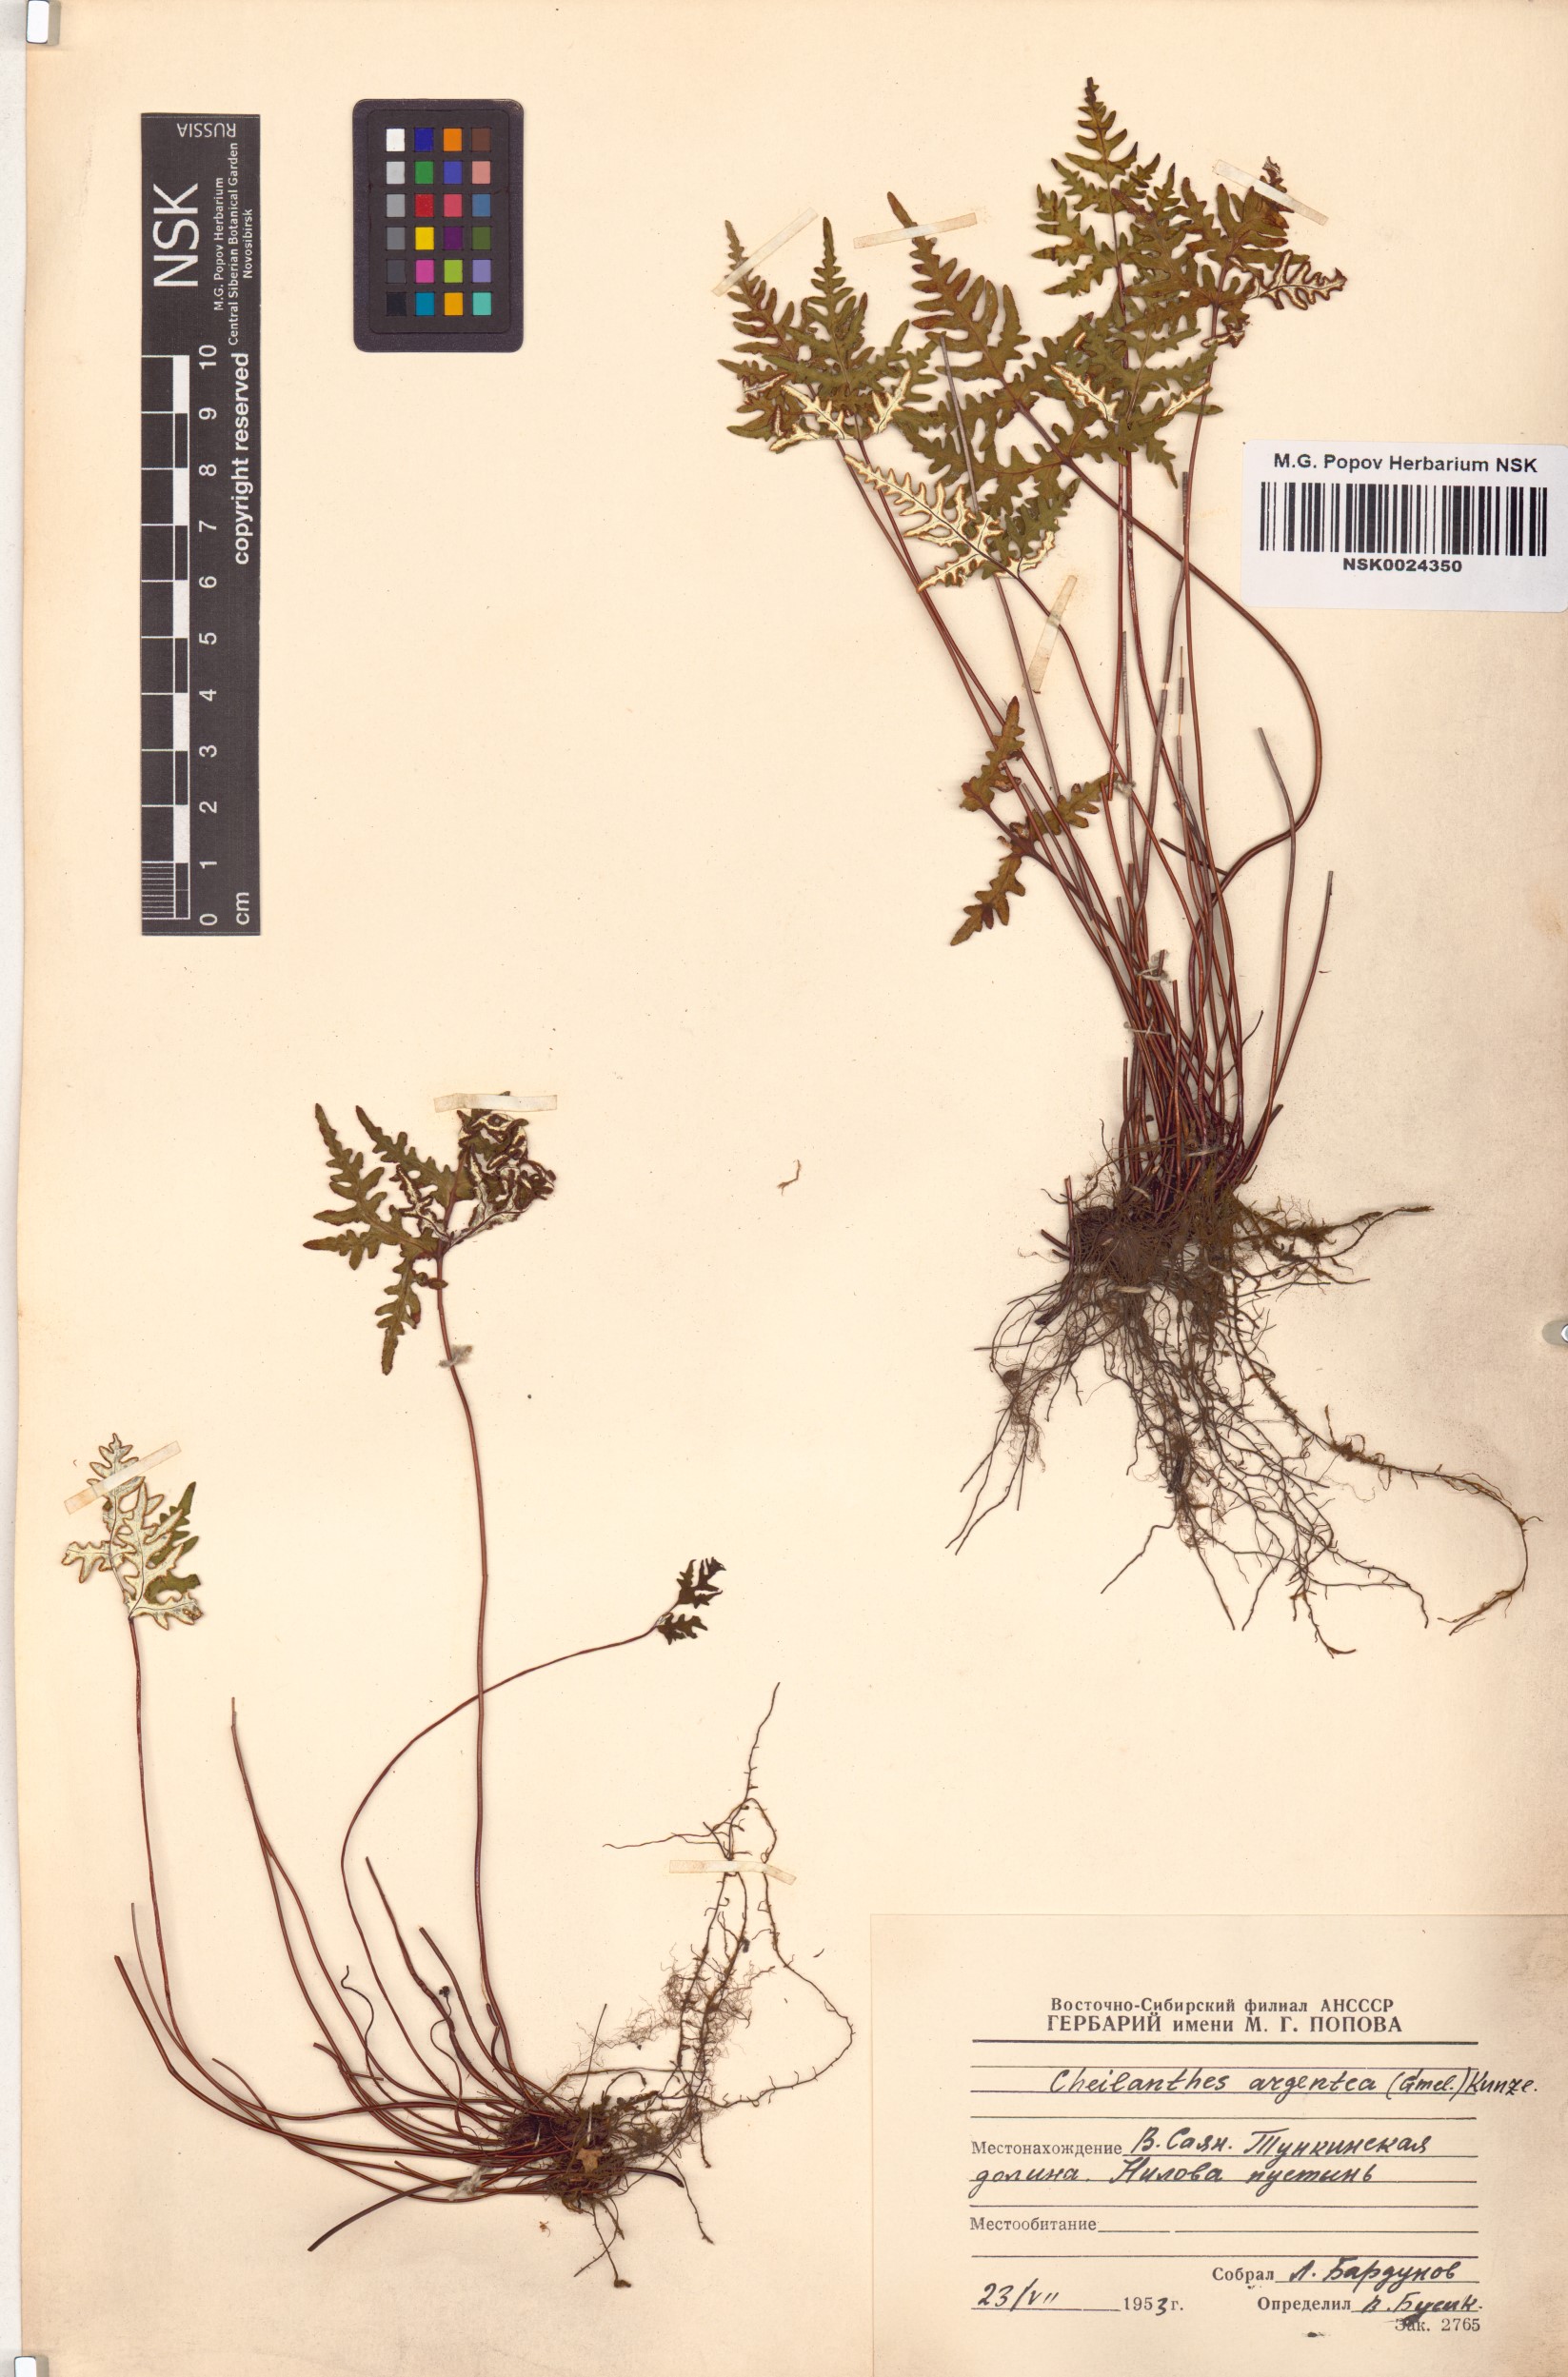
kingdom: Plantae
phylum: Tracheophyta
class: Polypodiopsida
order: Polypodiales
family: Pteridaceae
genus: Aleuritopteris
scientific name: Aleuritopteris argentea
